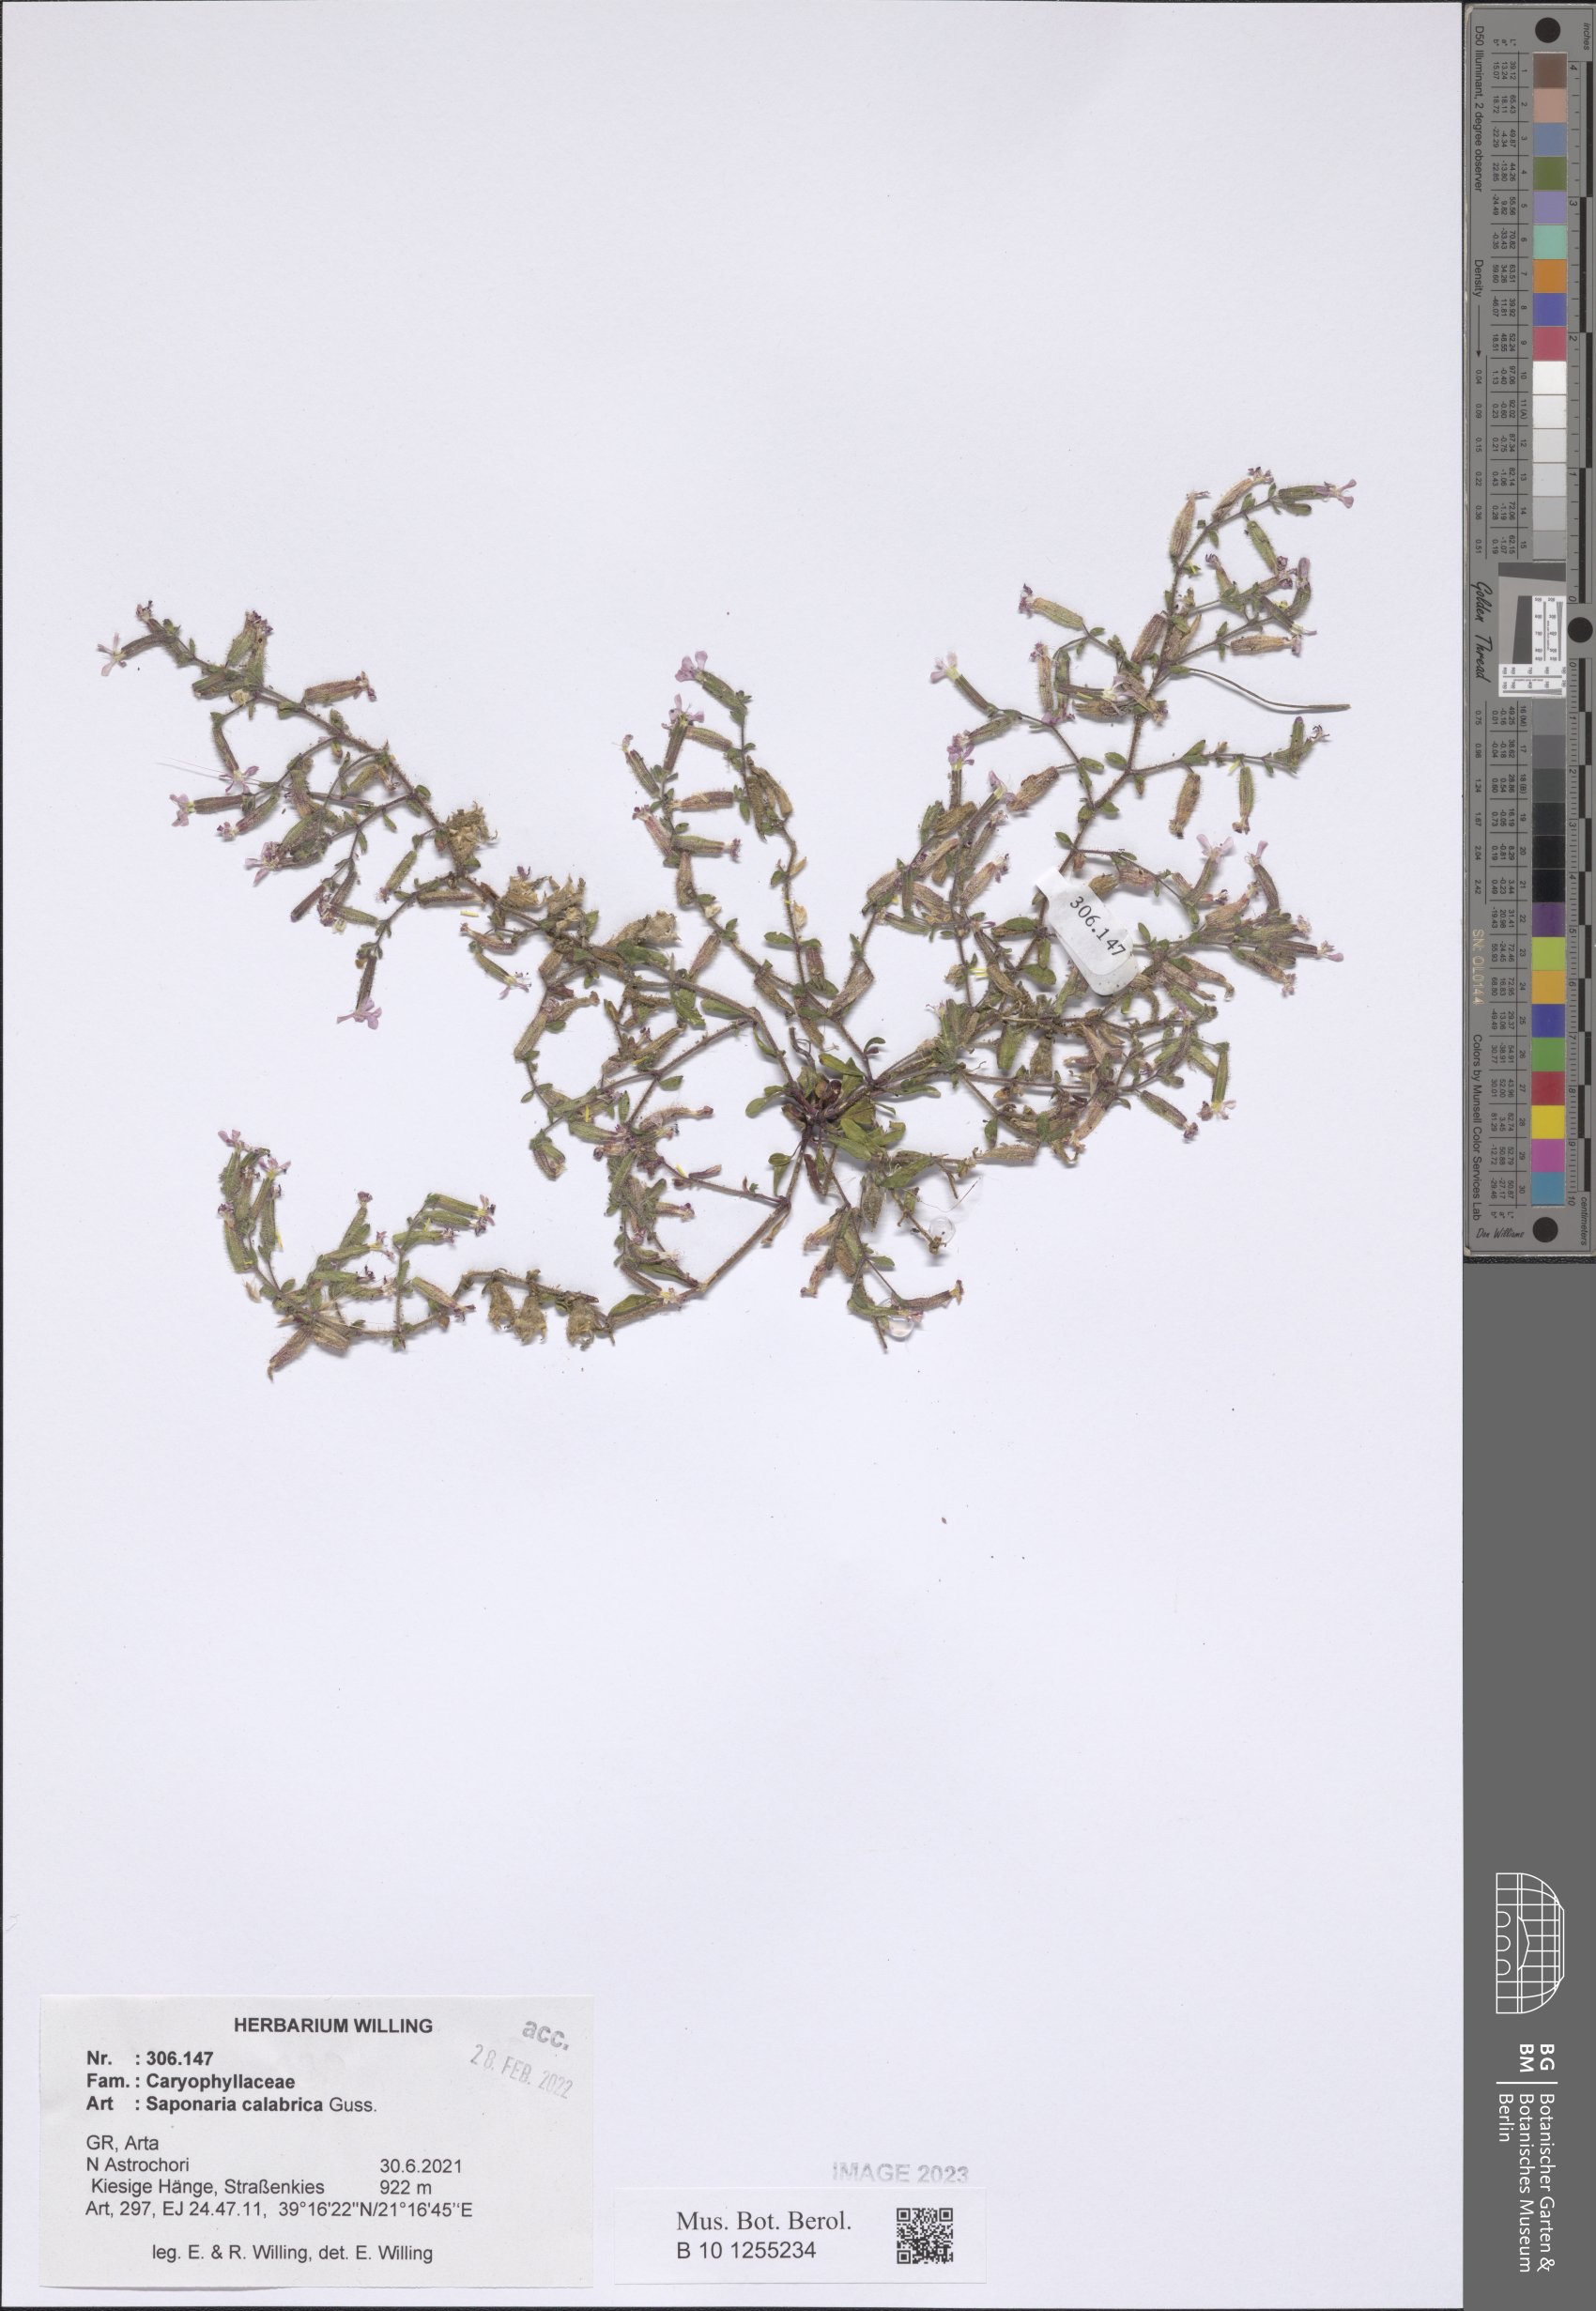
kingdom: Plantae
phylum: Tracheophyta
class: Magnoliopsida
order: Caryophyllales
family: Caryophyllaceae
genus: Saponaria
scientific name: Saponaria calabrica
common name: Adriatic soapwort
